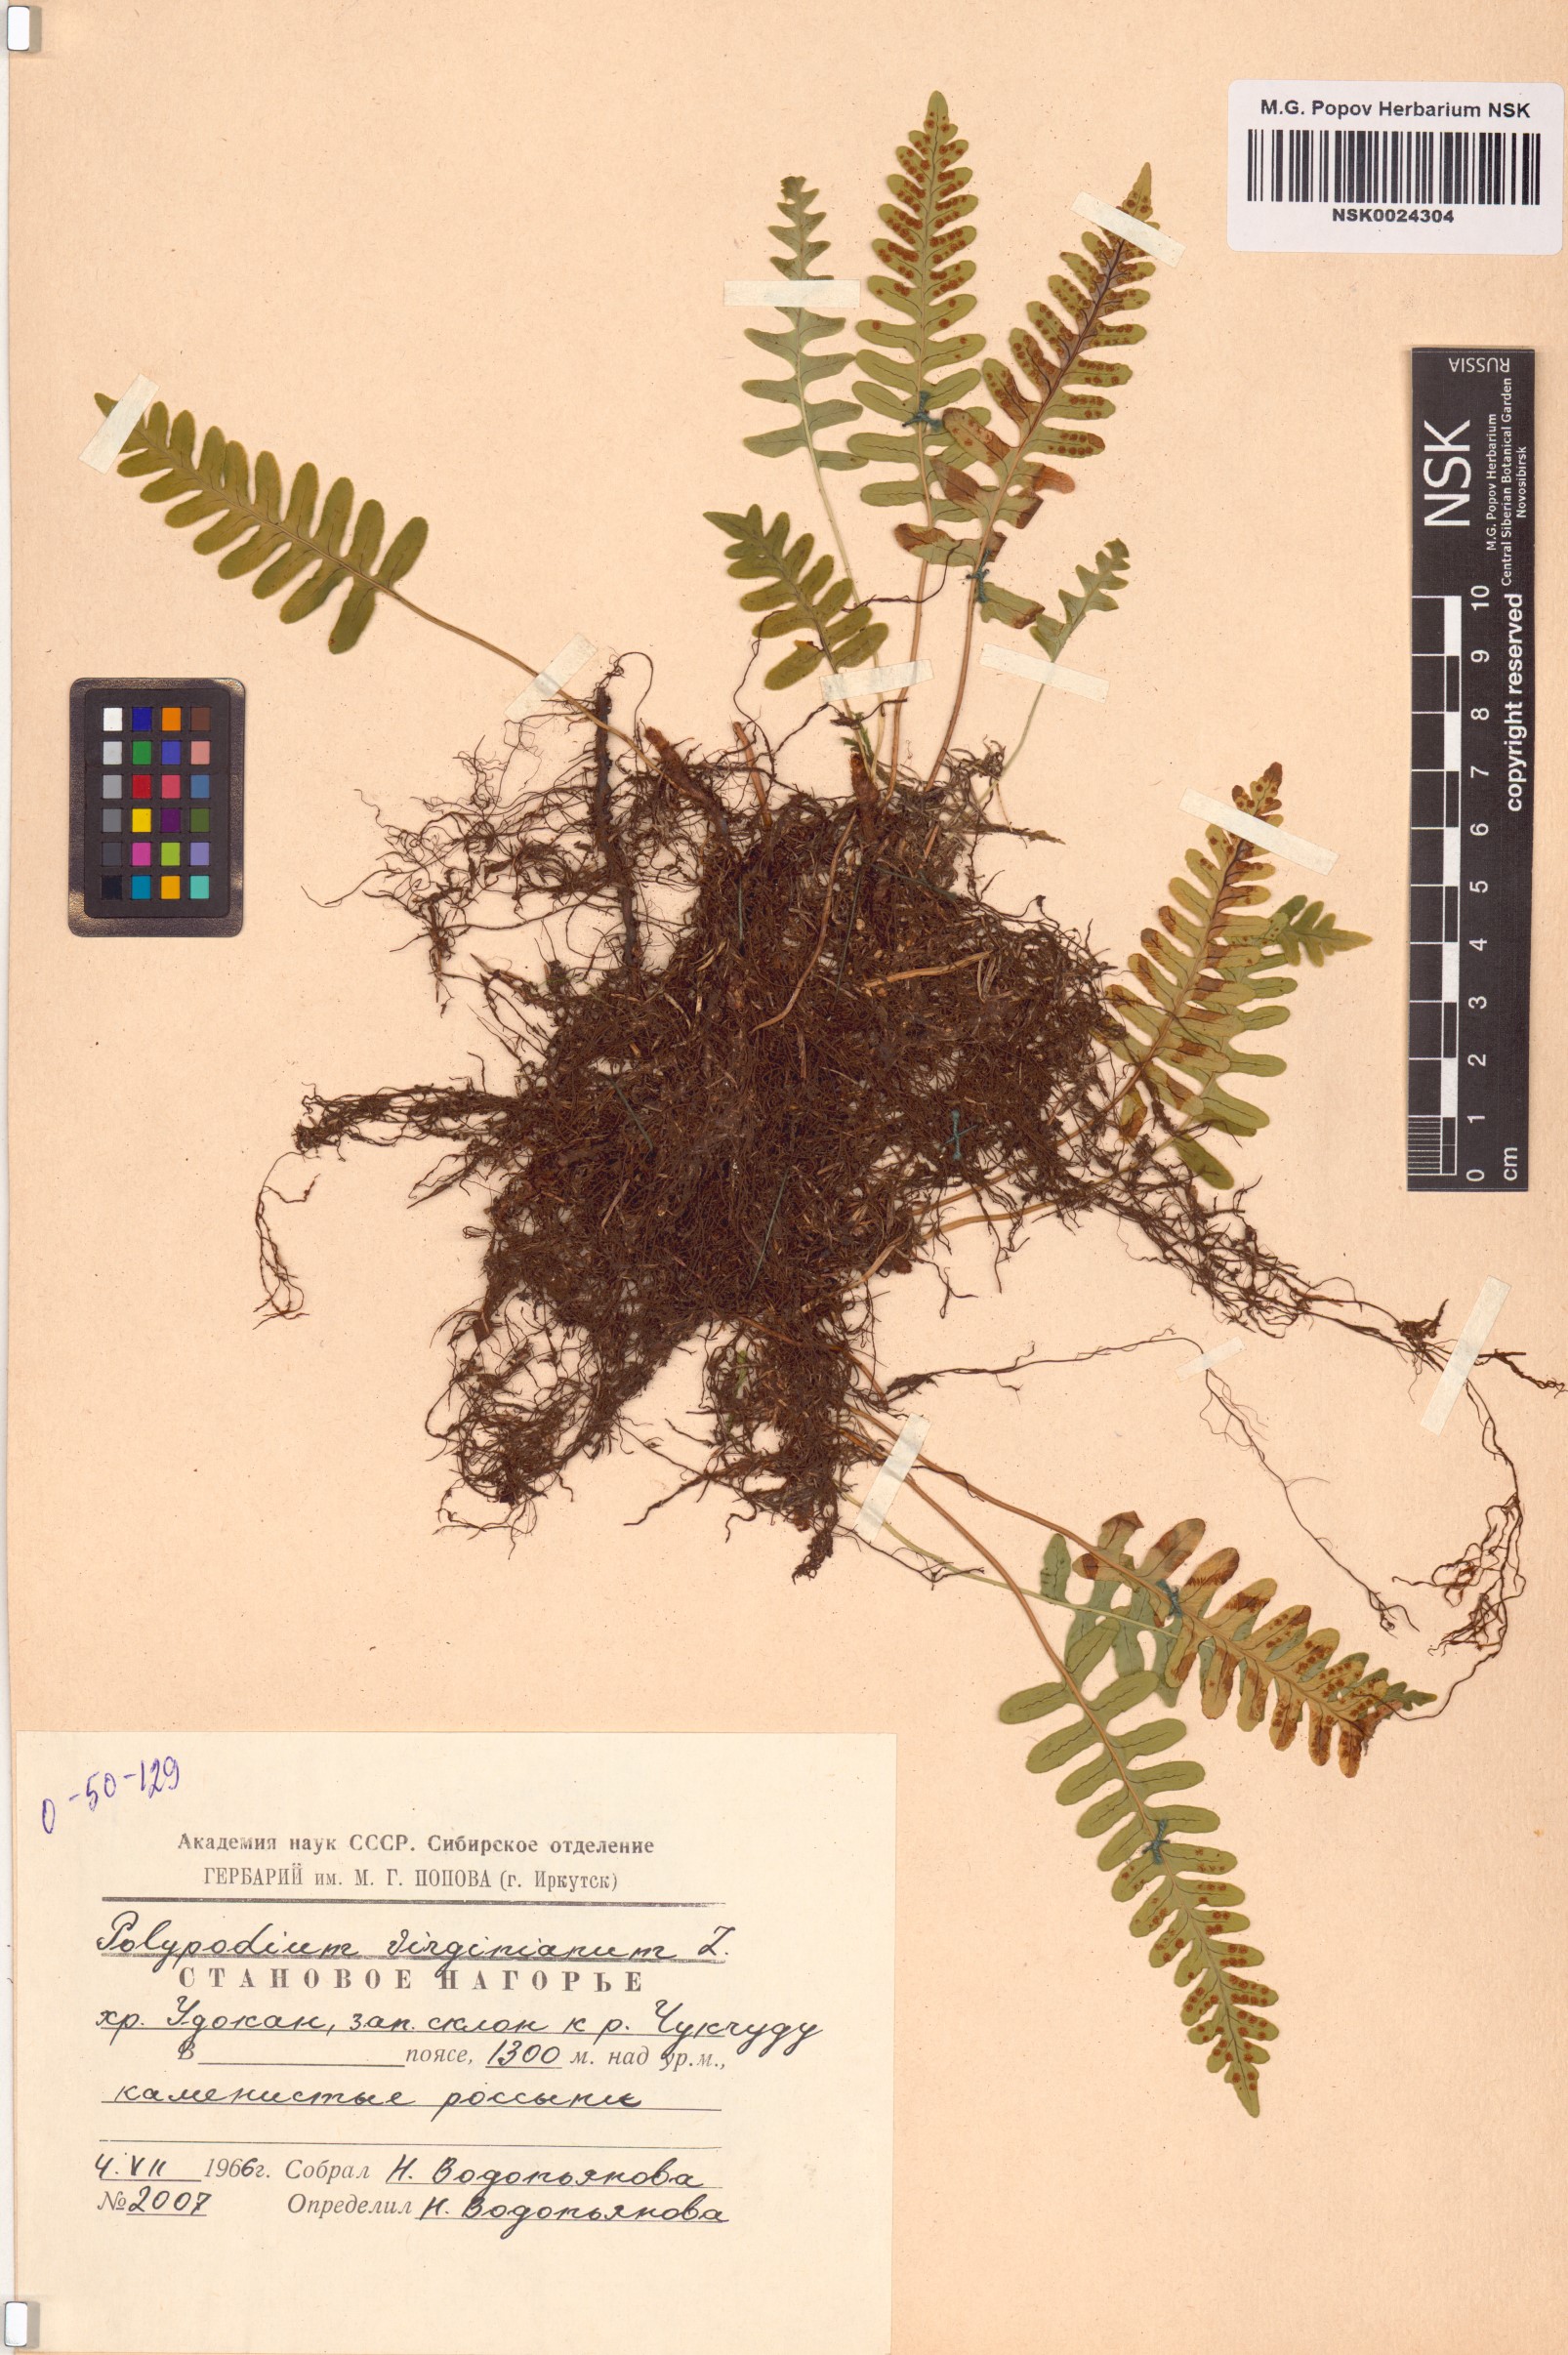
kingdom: Plantae
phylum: Tracheophyta
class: Polypodiopsida
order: Polypodiales
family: Polypodiaceae
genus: Polypodium
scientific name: Polypodium virginianum
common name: American wall fern
